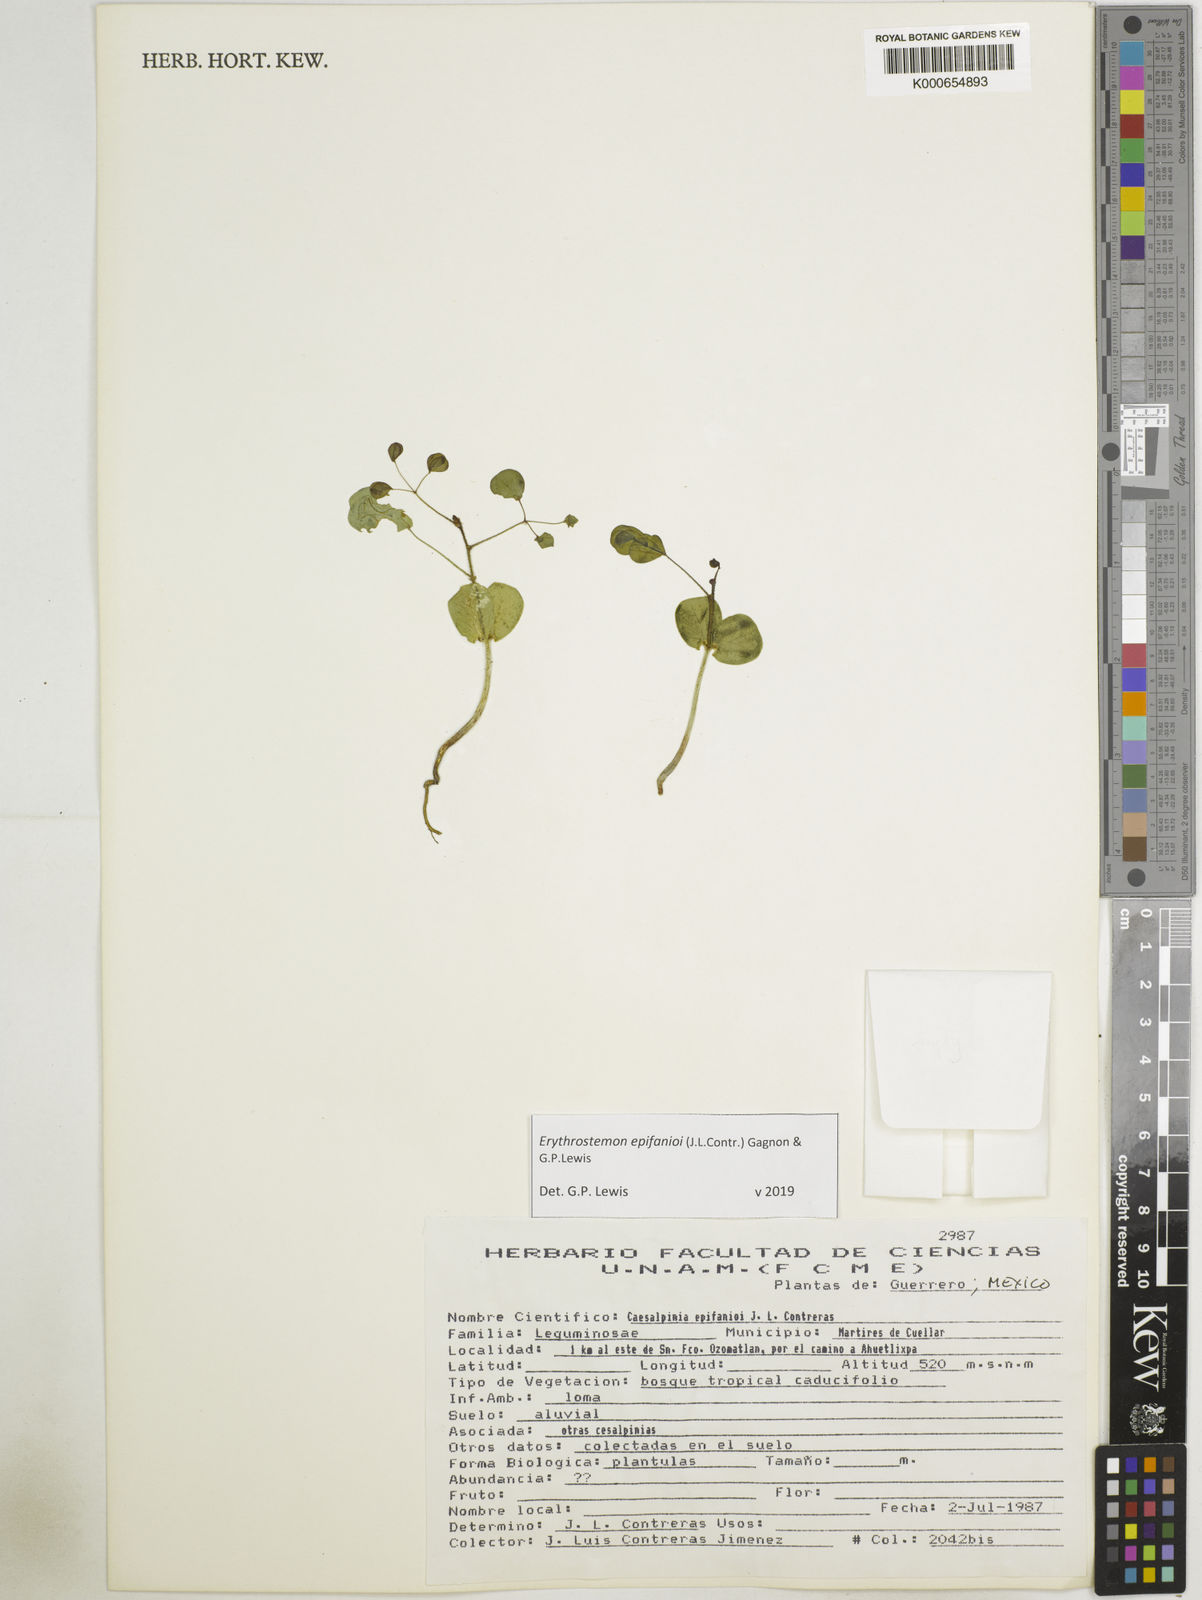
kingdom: Plantae
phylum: Tracheophyta
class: Magnoliopsida
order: Fabales
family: Fabaceae
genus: Erythrostemon
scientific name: Erythrostemon epifanioi
